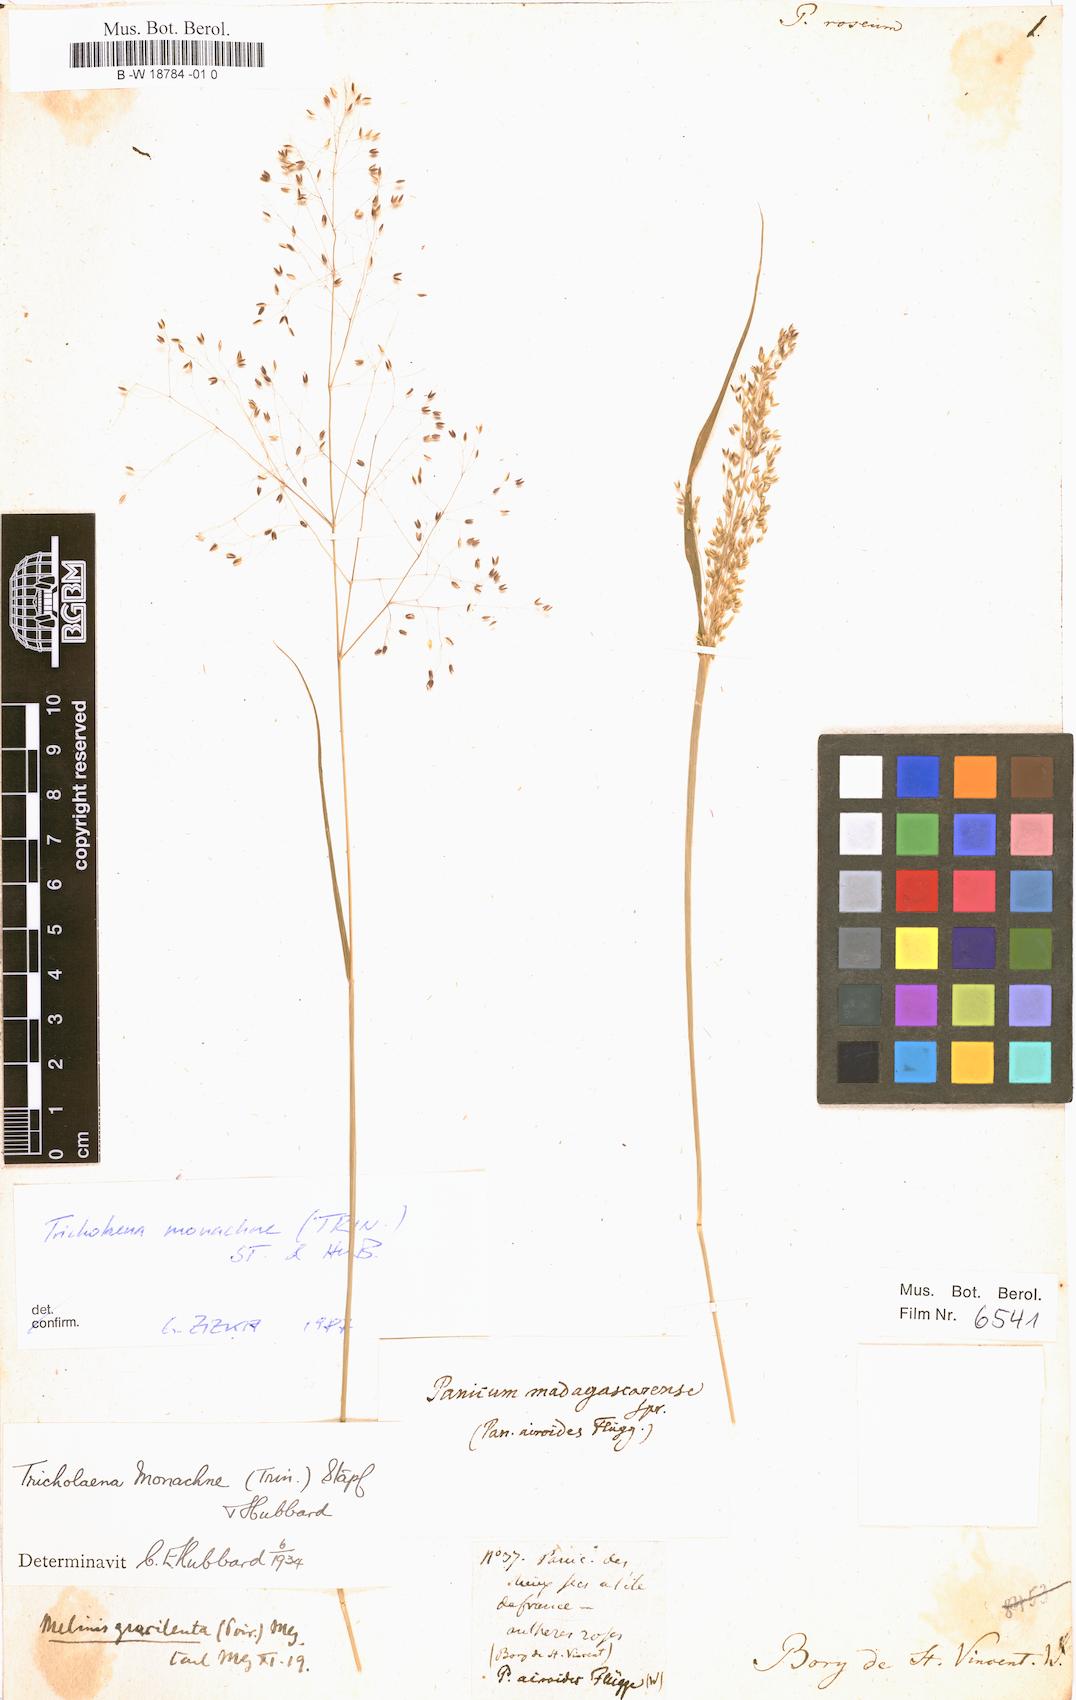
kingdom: Plantae
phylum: Tracheophyta
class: Liliopsida
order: Poales
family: Poaceae
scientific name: Poaceae
